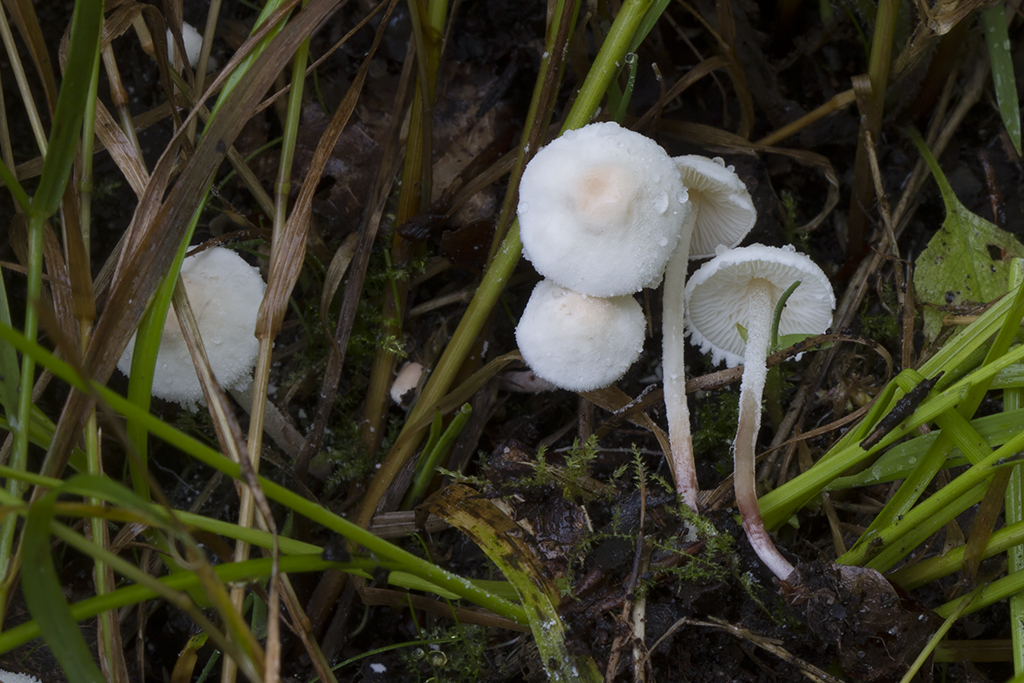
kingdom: Fungi
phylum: Basidiomycota
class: Agaricomycetes
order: Agaricales
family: Agaricaceae
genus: Cystolepiota
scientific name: Cystolepiota seminuda
